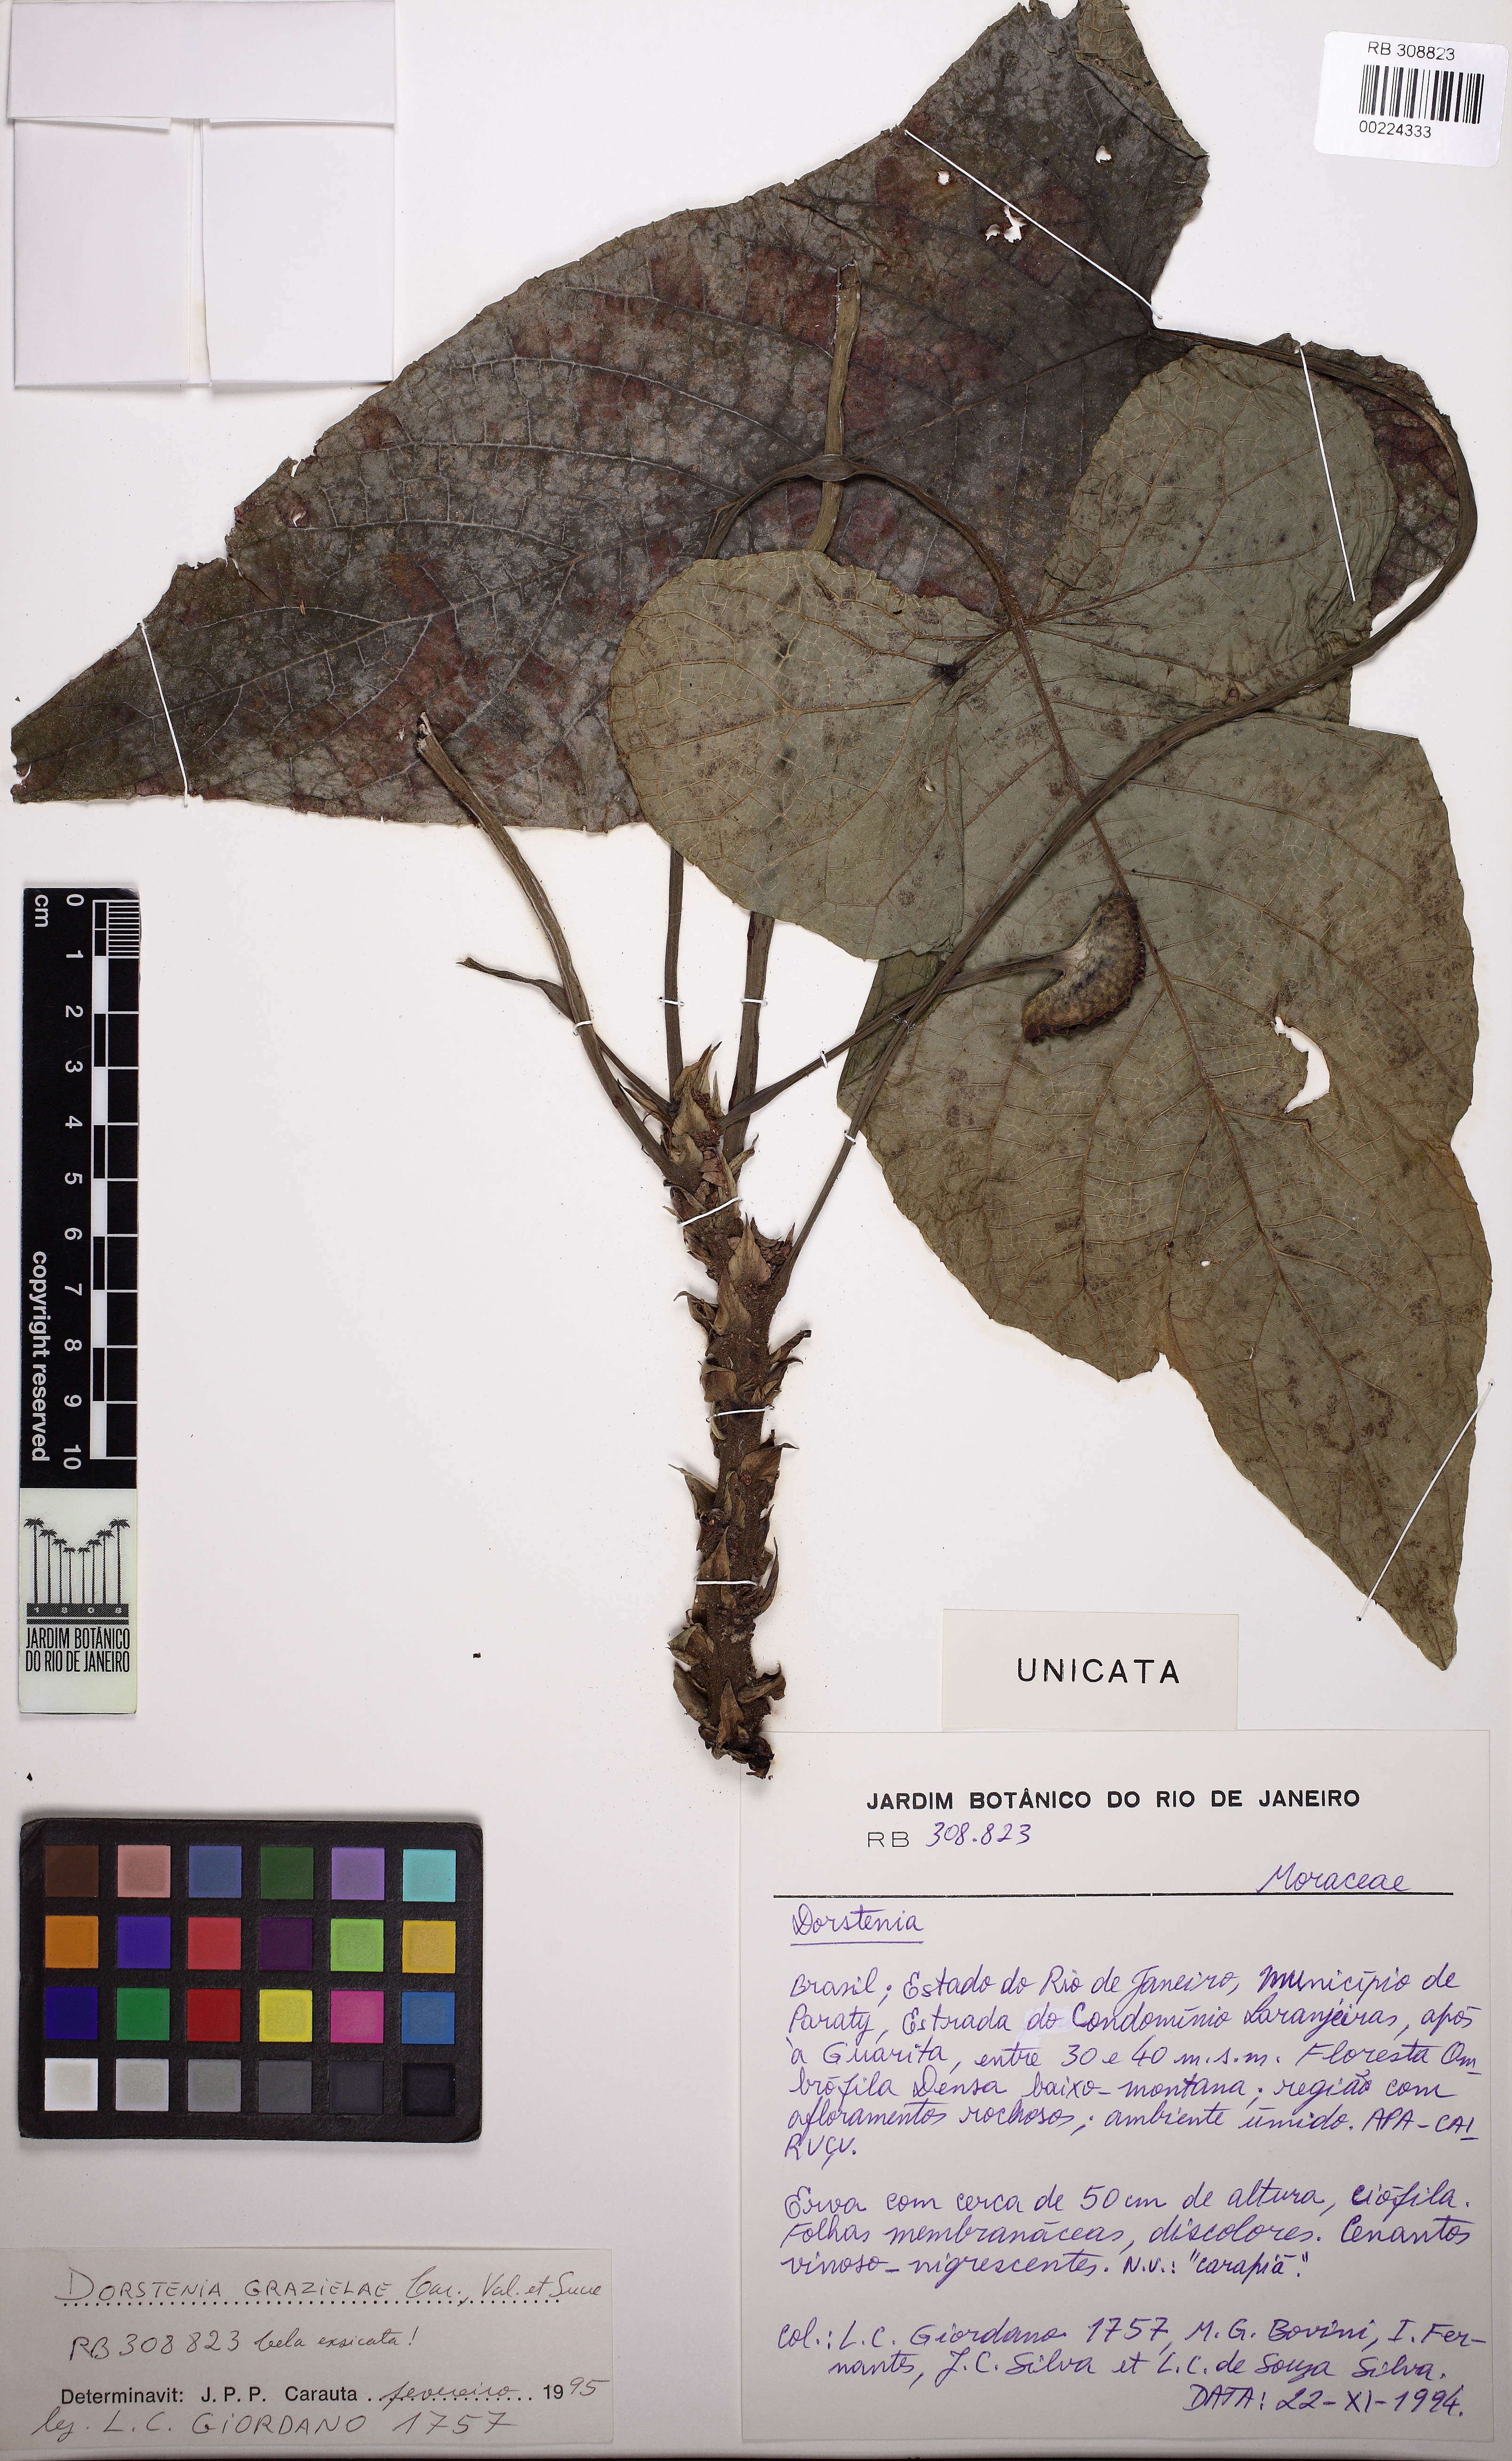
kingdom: Plantae
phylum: Tracheophyta
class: Magnoliopsida
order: Rosales
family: Moraceae
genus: Dorstenia
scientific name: Dorstenia grazielae
